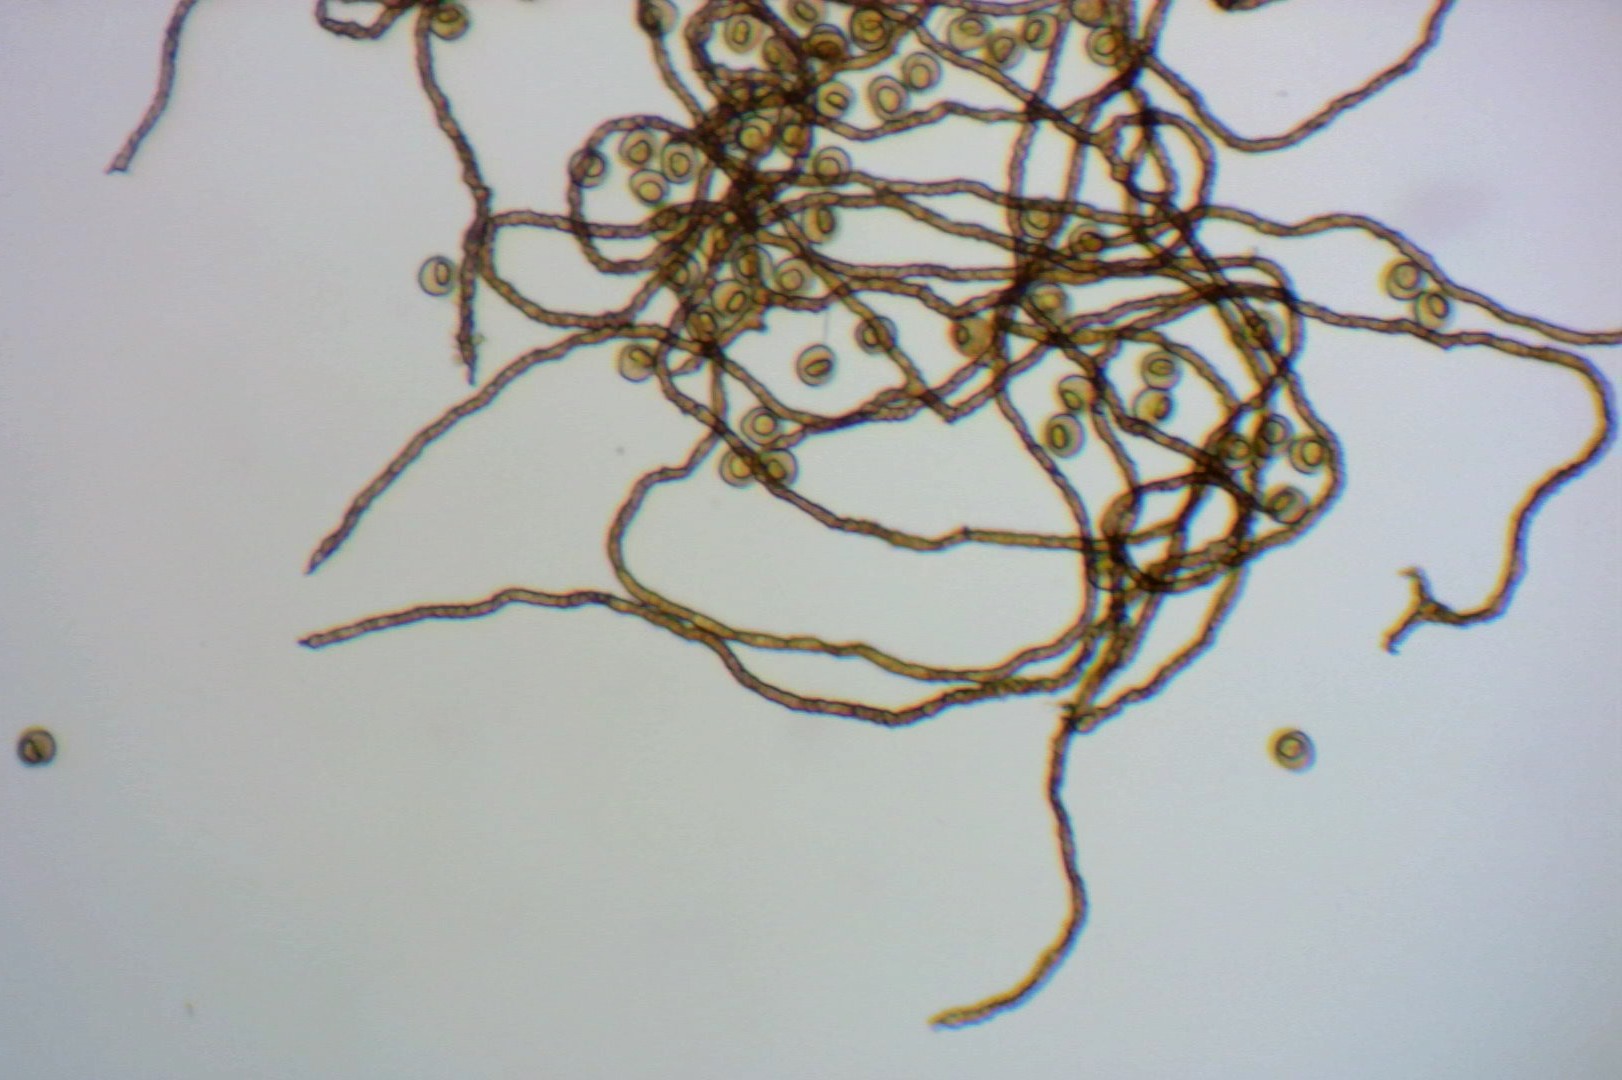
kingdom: Protozoa
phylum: Mycetozoa
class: Myxomycetes
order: Trichiales
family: Trichiaceae
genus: Trichia
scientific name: Trichia varia
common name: foranderlig hårbold
